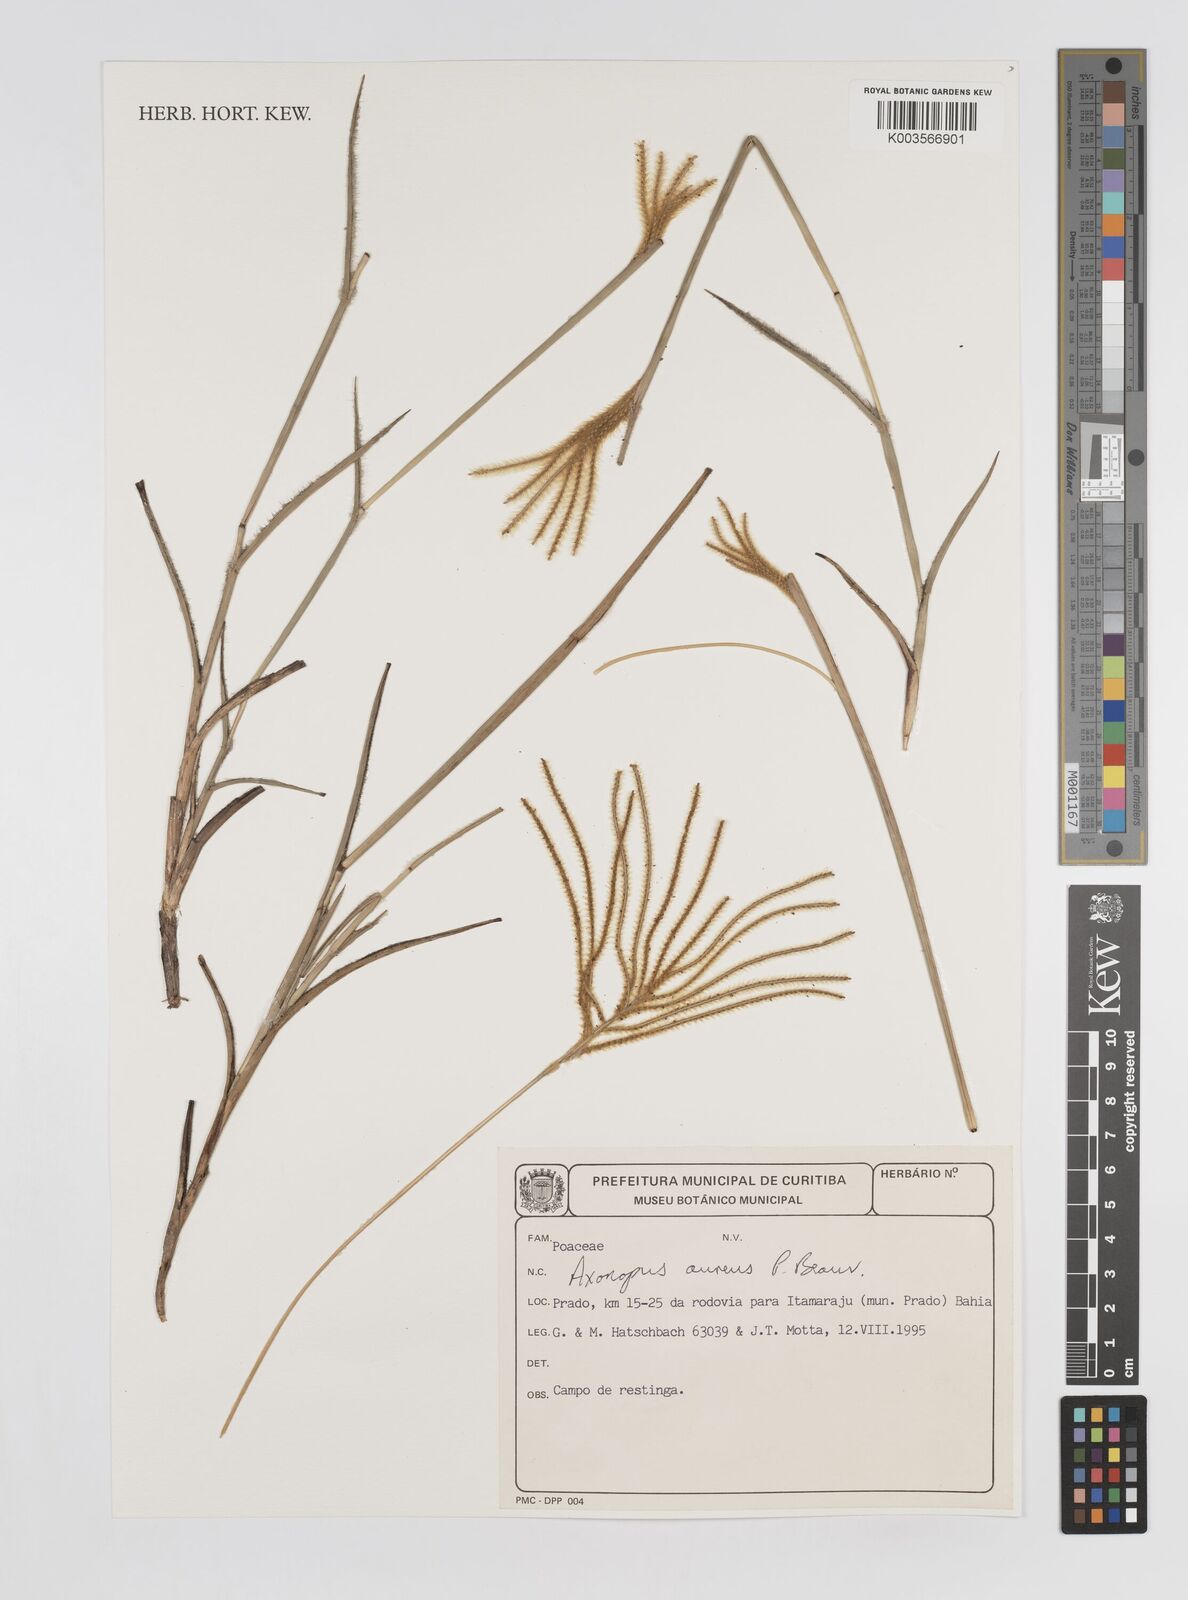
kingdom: Plantae
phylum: Tracheophyta
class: Liliopsida
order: Poales
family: Poaceae
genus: Axonopus
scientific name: Axonopus aureus
